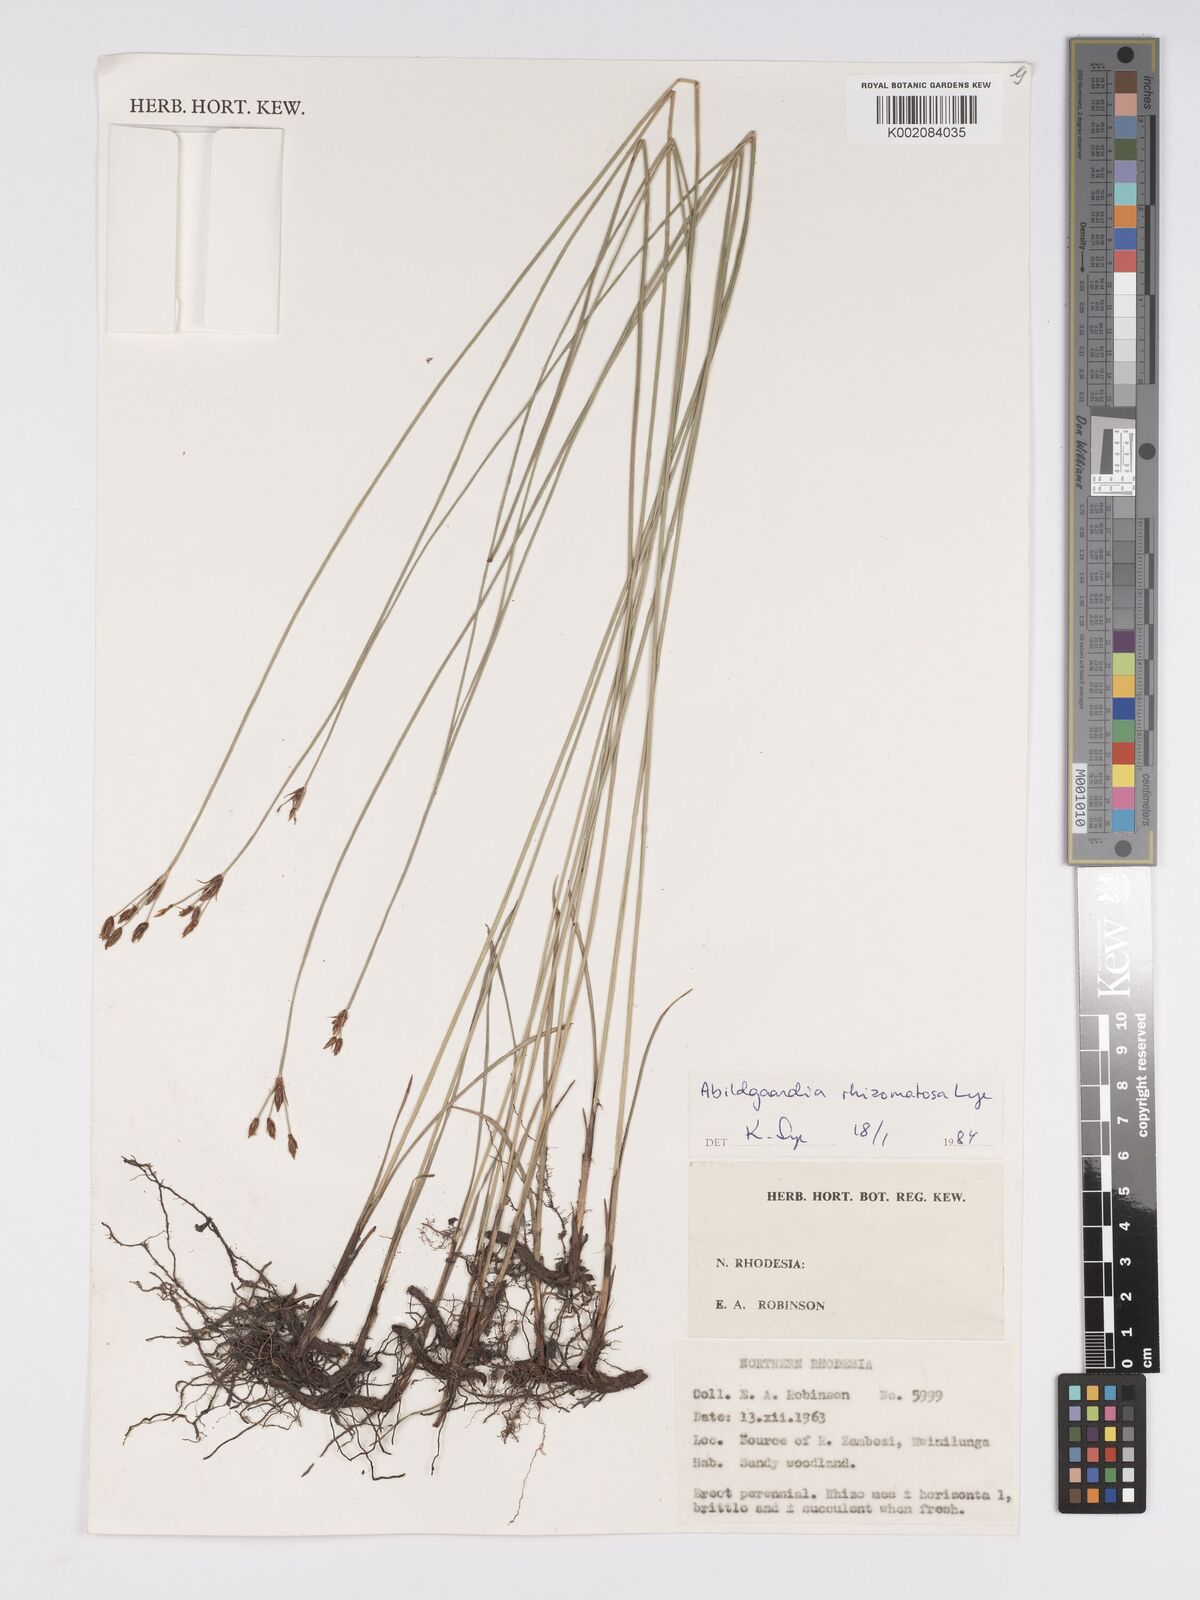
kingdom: Plantae
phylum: Tracheophyta
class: Liliopsida
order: Poales
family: Cyperaceae
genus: Bulbostylis
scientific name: Bulbostylis rhizomatosa
